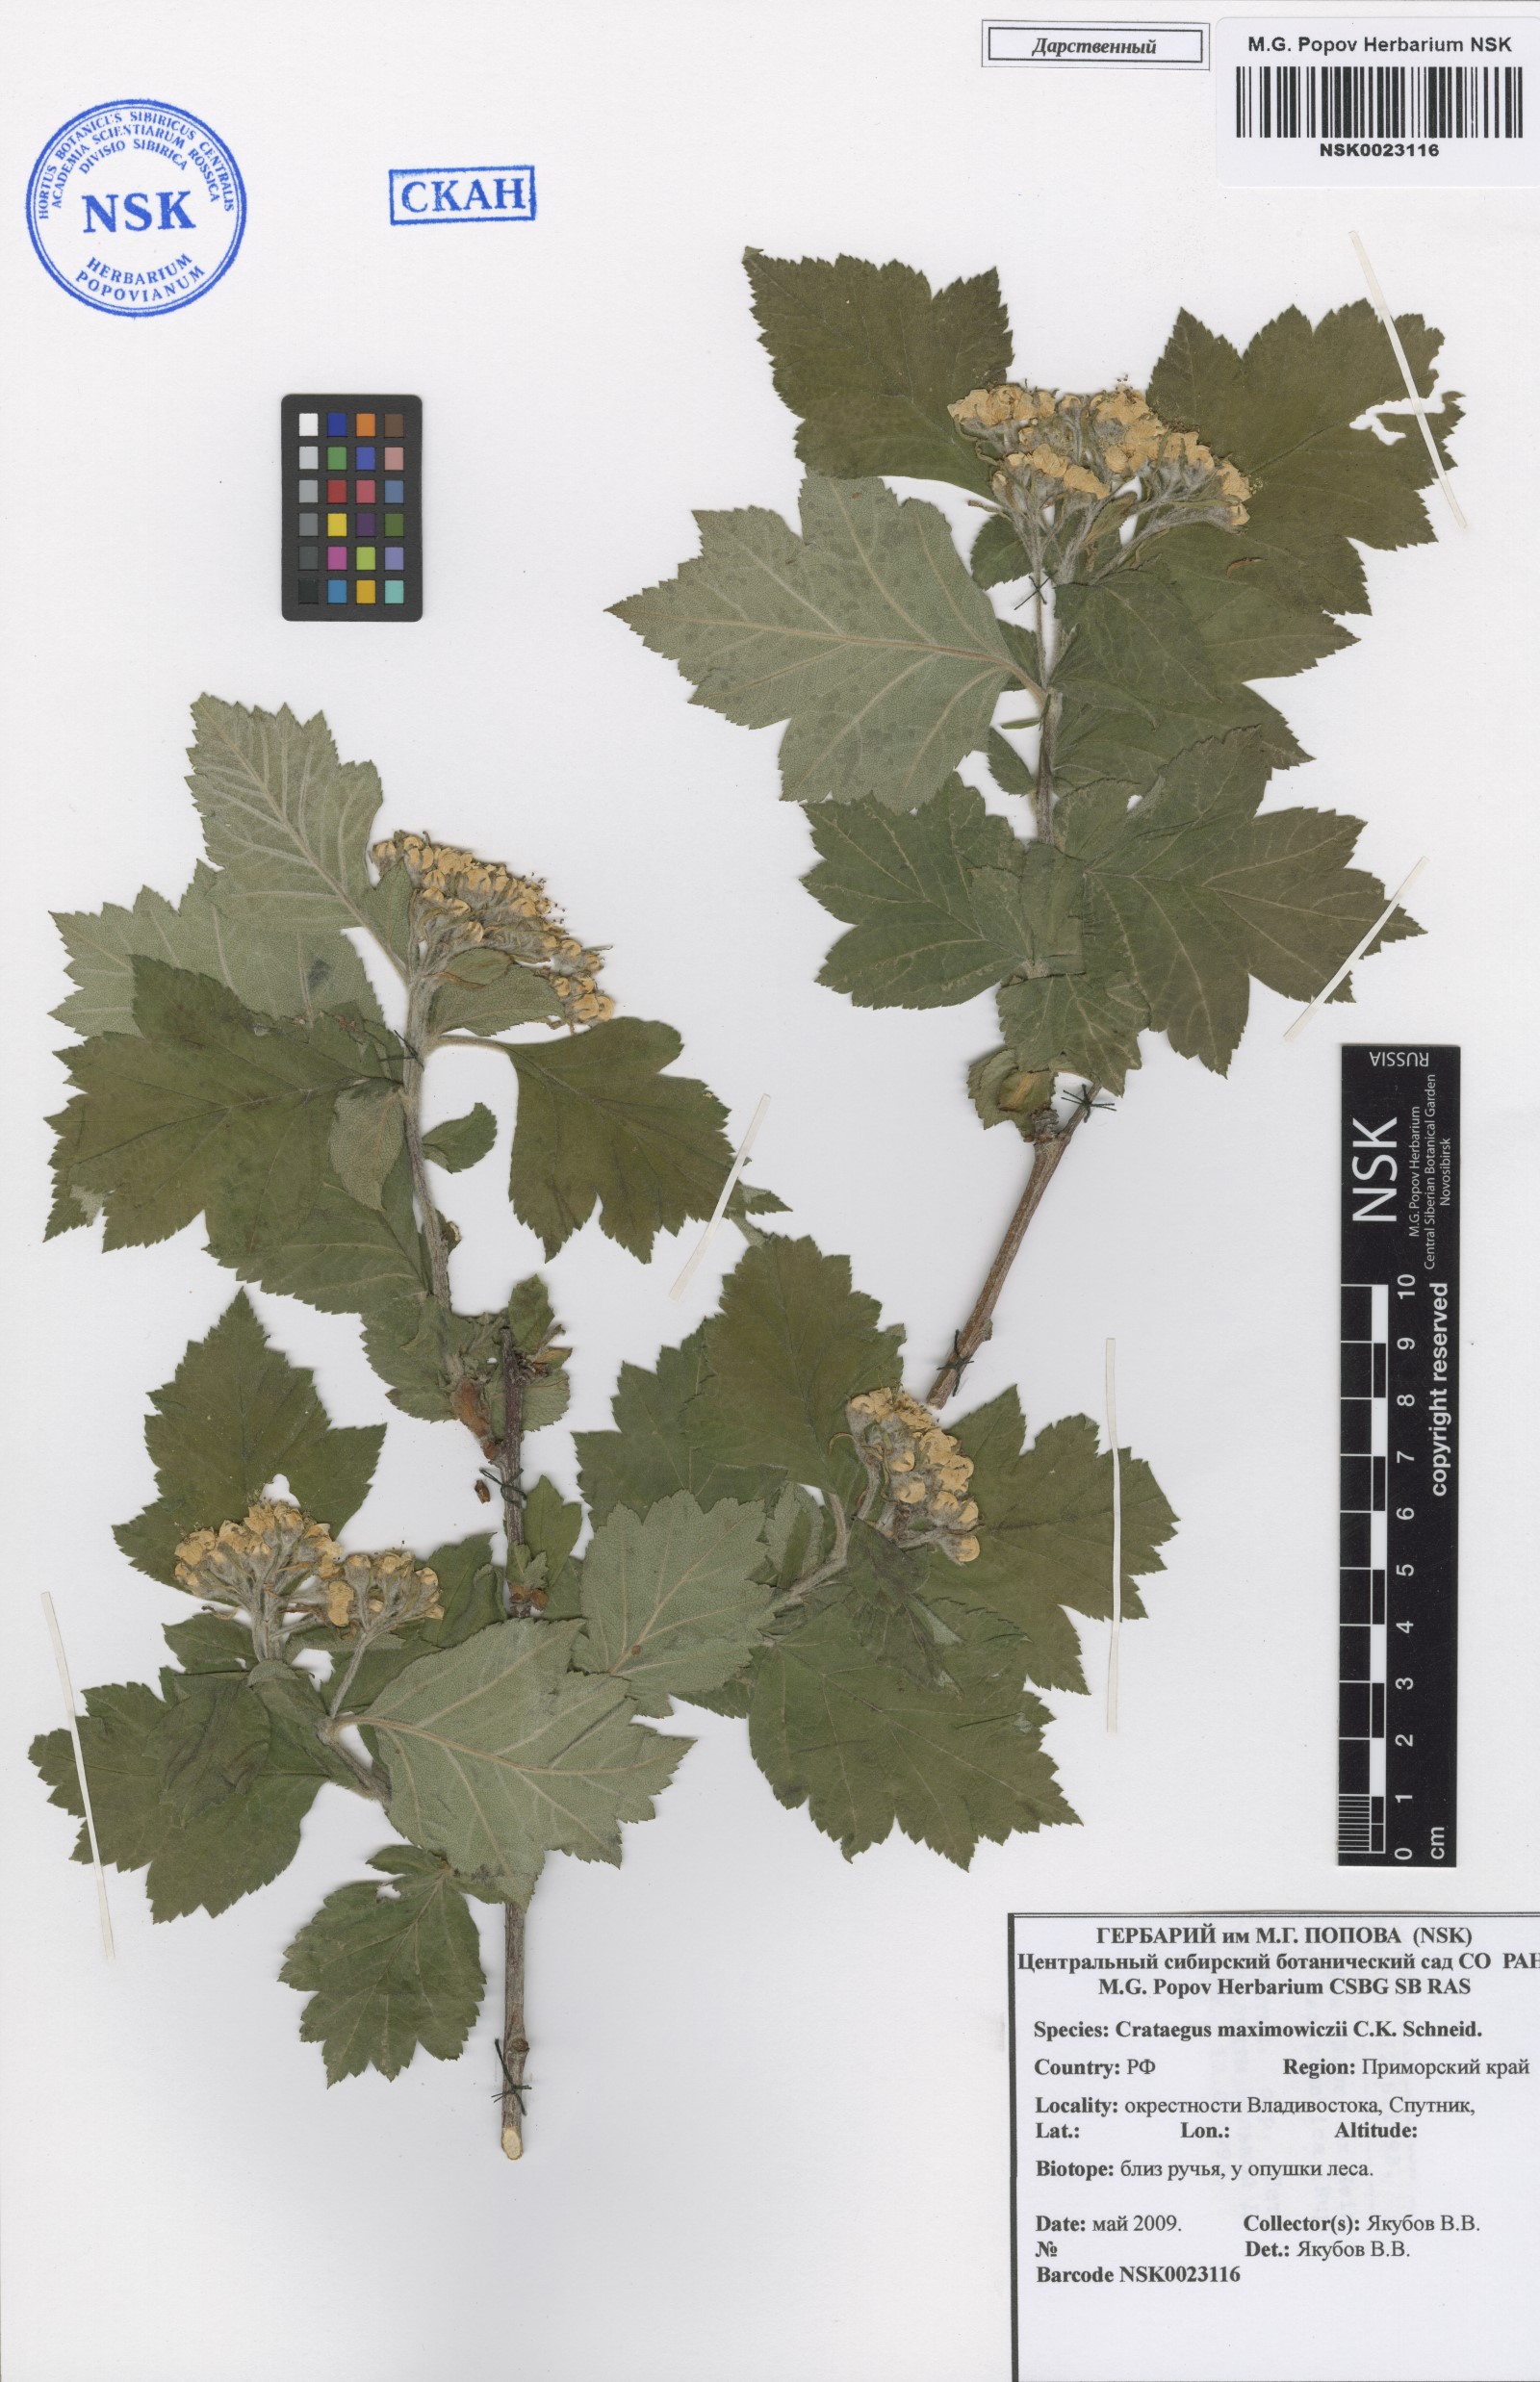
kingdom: Plantae
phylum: Tracheophyta
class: Magnoliopsida
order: Rosales
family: Rosaceae
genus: Crataegus
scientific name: Crataegus maximowiczii
